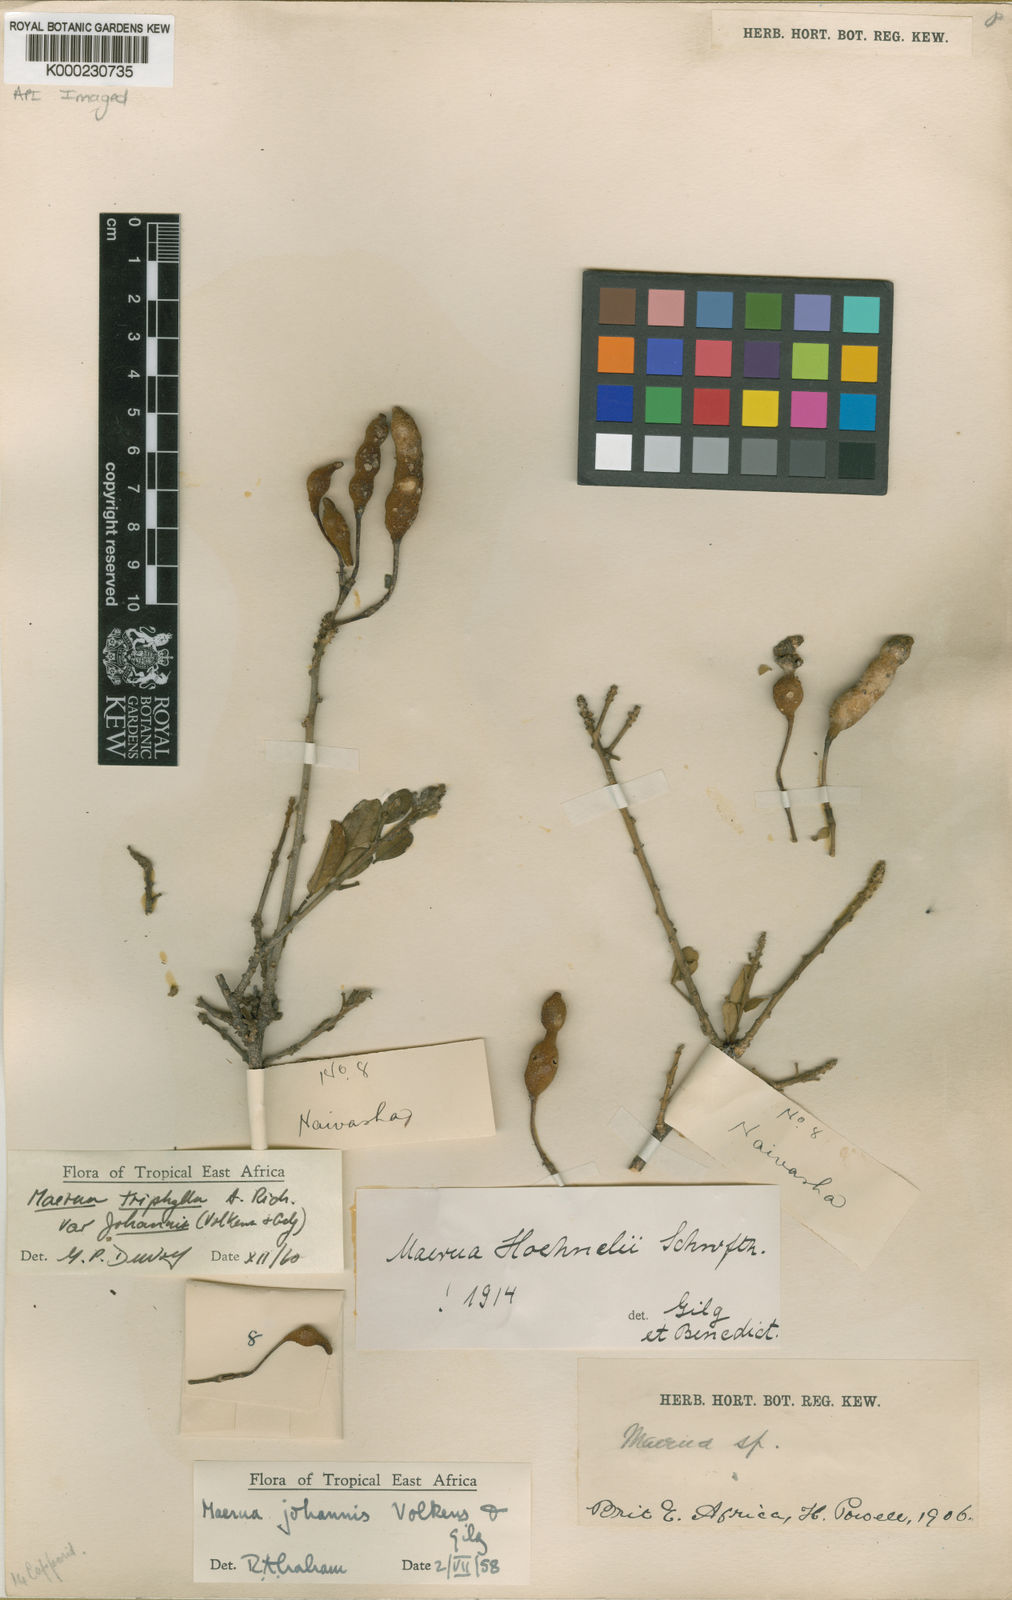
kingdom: Plantae
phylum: Tracheophyta
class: Magnoliopsida
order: Brassicales
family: Capparaceae
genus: Maerua
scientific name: Maerua triphylla
